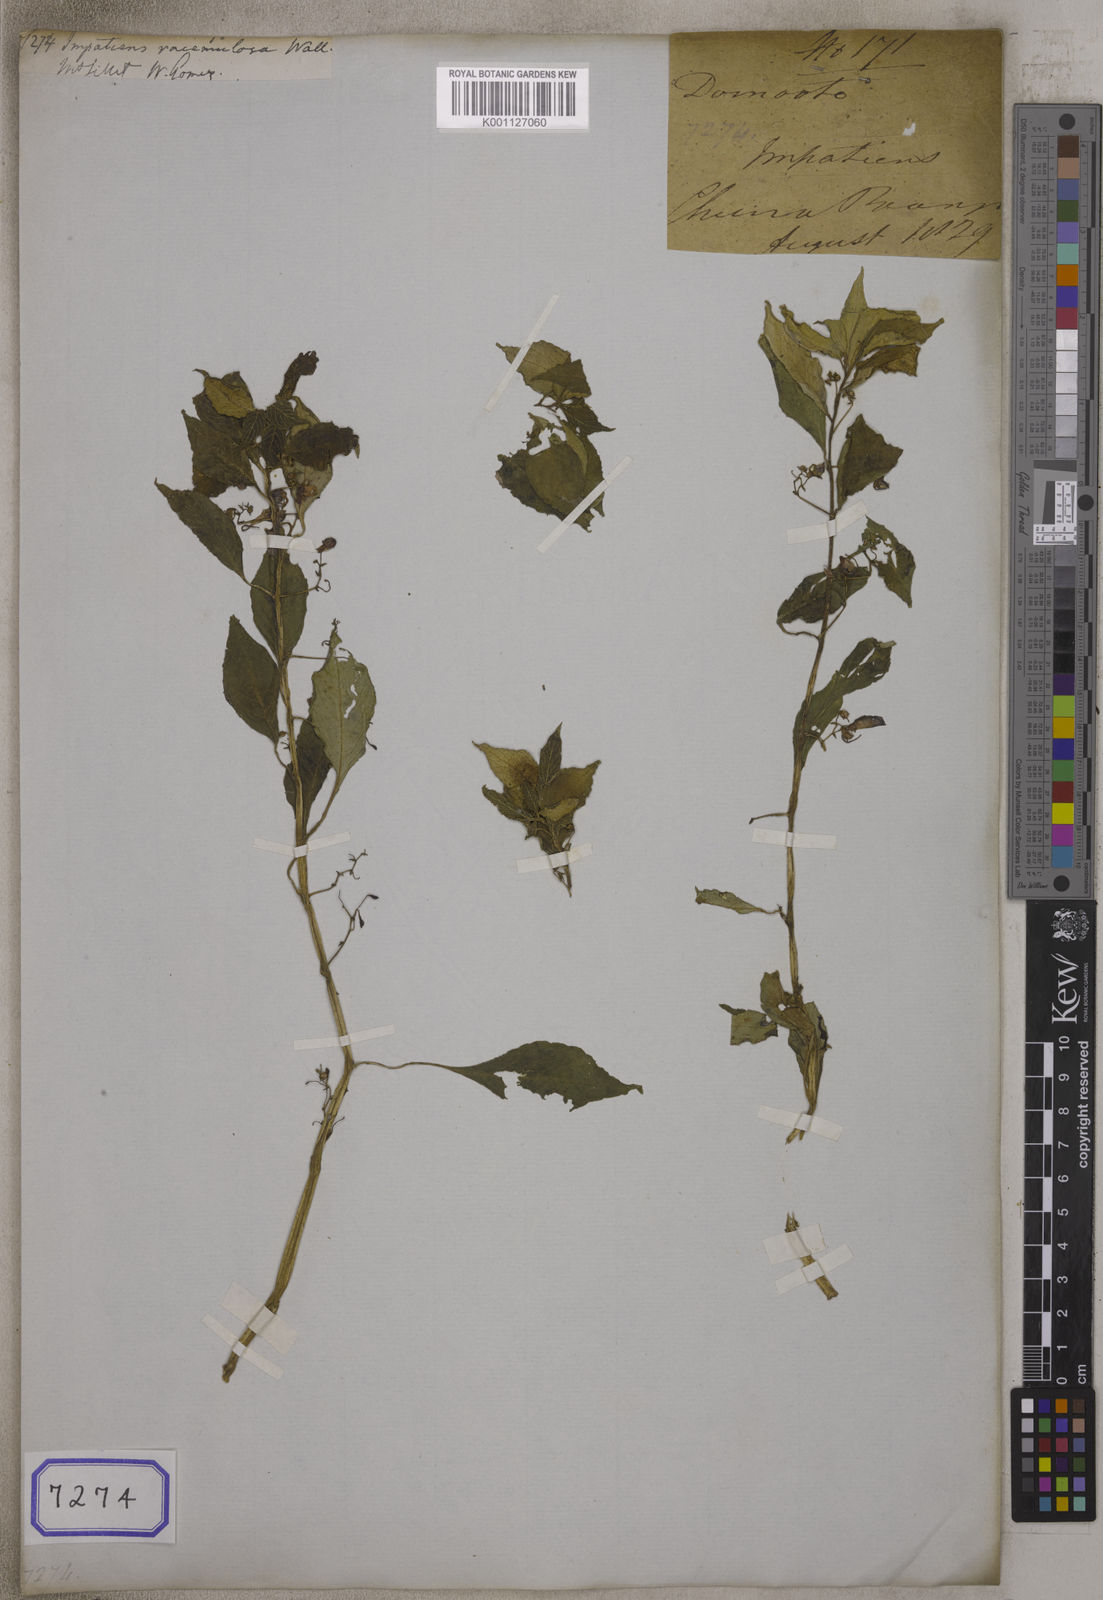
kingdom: Plantae
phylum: Tracheophyta
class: Magnoliopsida
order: Ericales
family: Balsaminaceae
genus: Impatiens
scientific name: Impatiens
